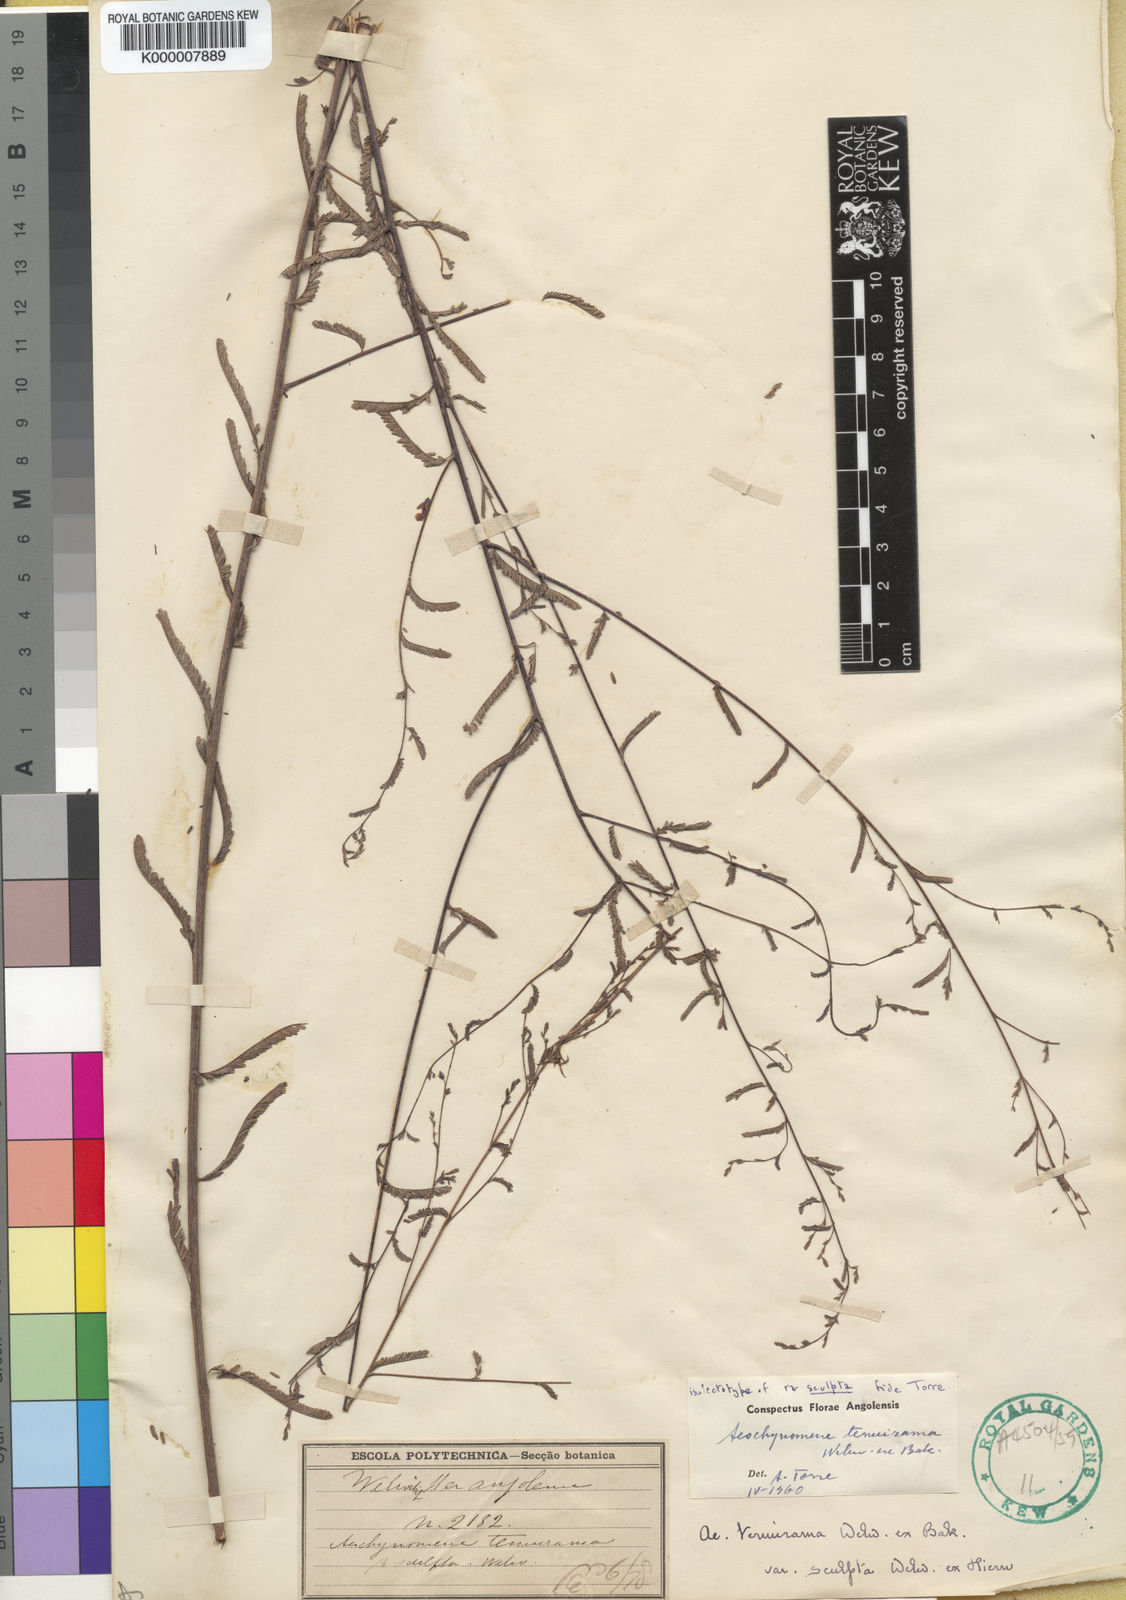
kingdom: Plantae
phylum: Tracheophyta
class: Magnoliopsida
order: Fabales
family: Fabaceae
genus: Aeschynomene
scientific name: Aeschynomene tenuirama
